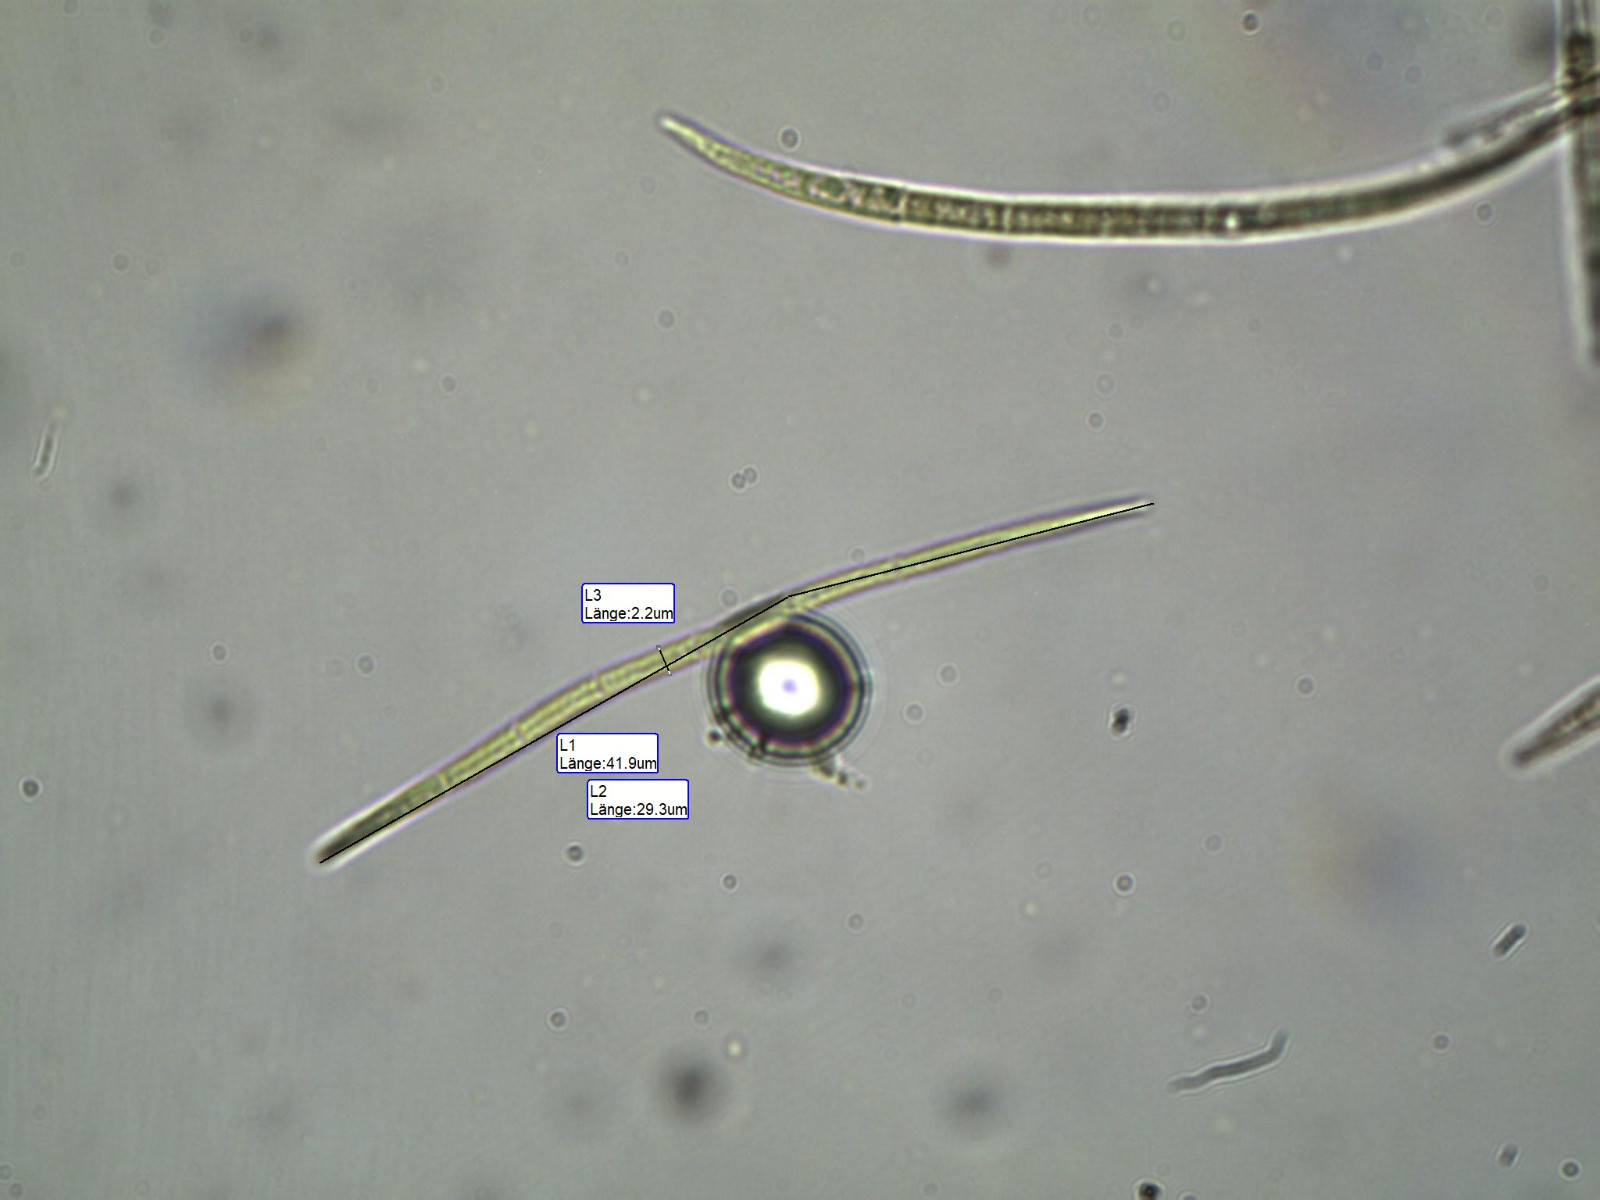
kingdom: Fungi
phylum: Ascomycota
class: Leotiomycetes
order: Helotiales
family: Lachnaceae
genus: Lachnellula
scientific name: Lachnellula pseudofarinacea
